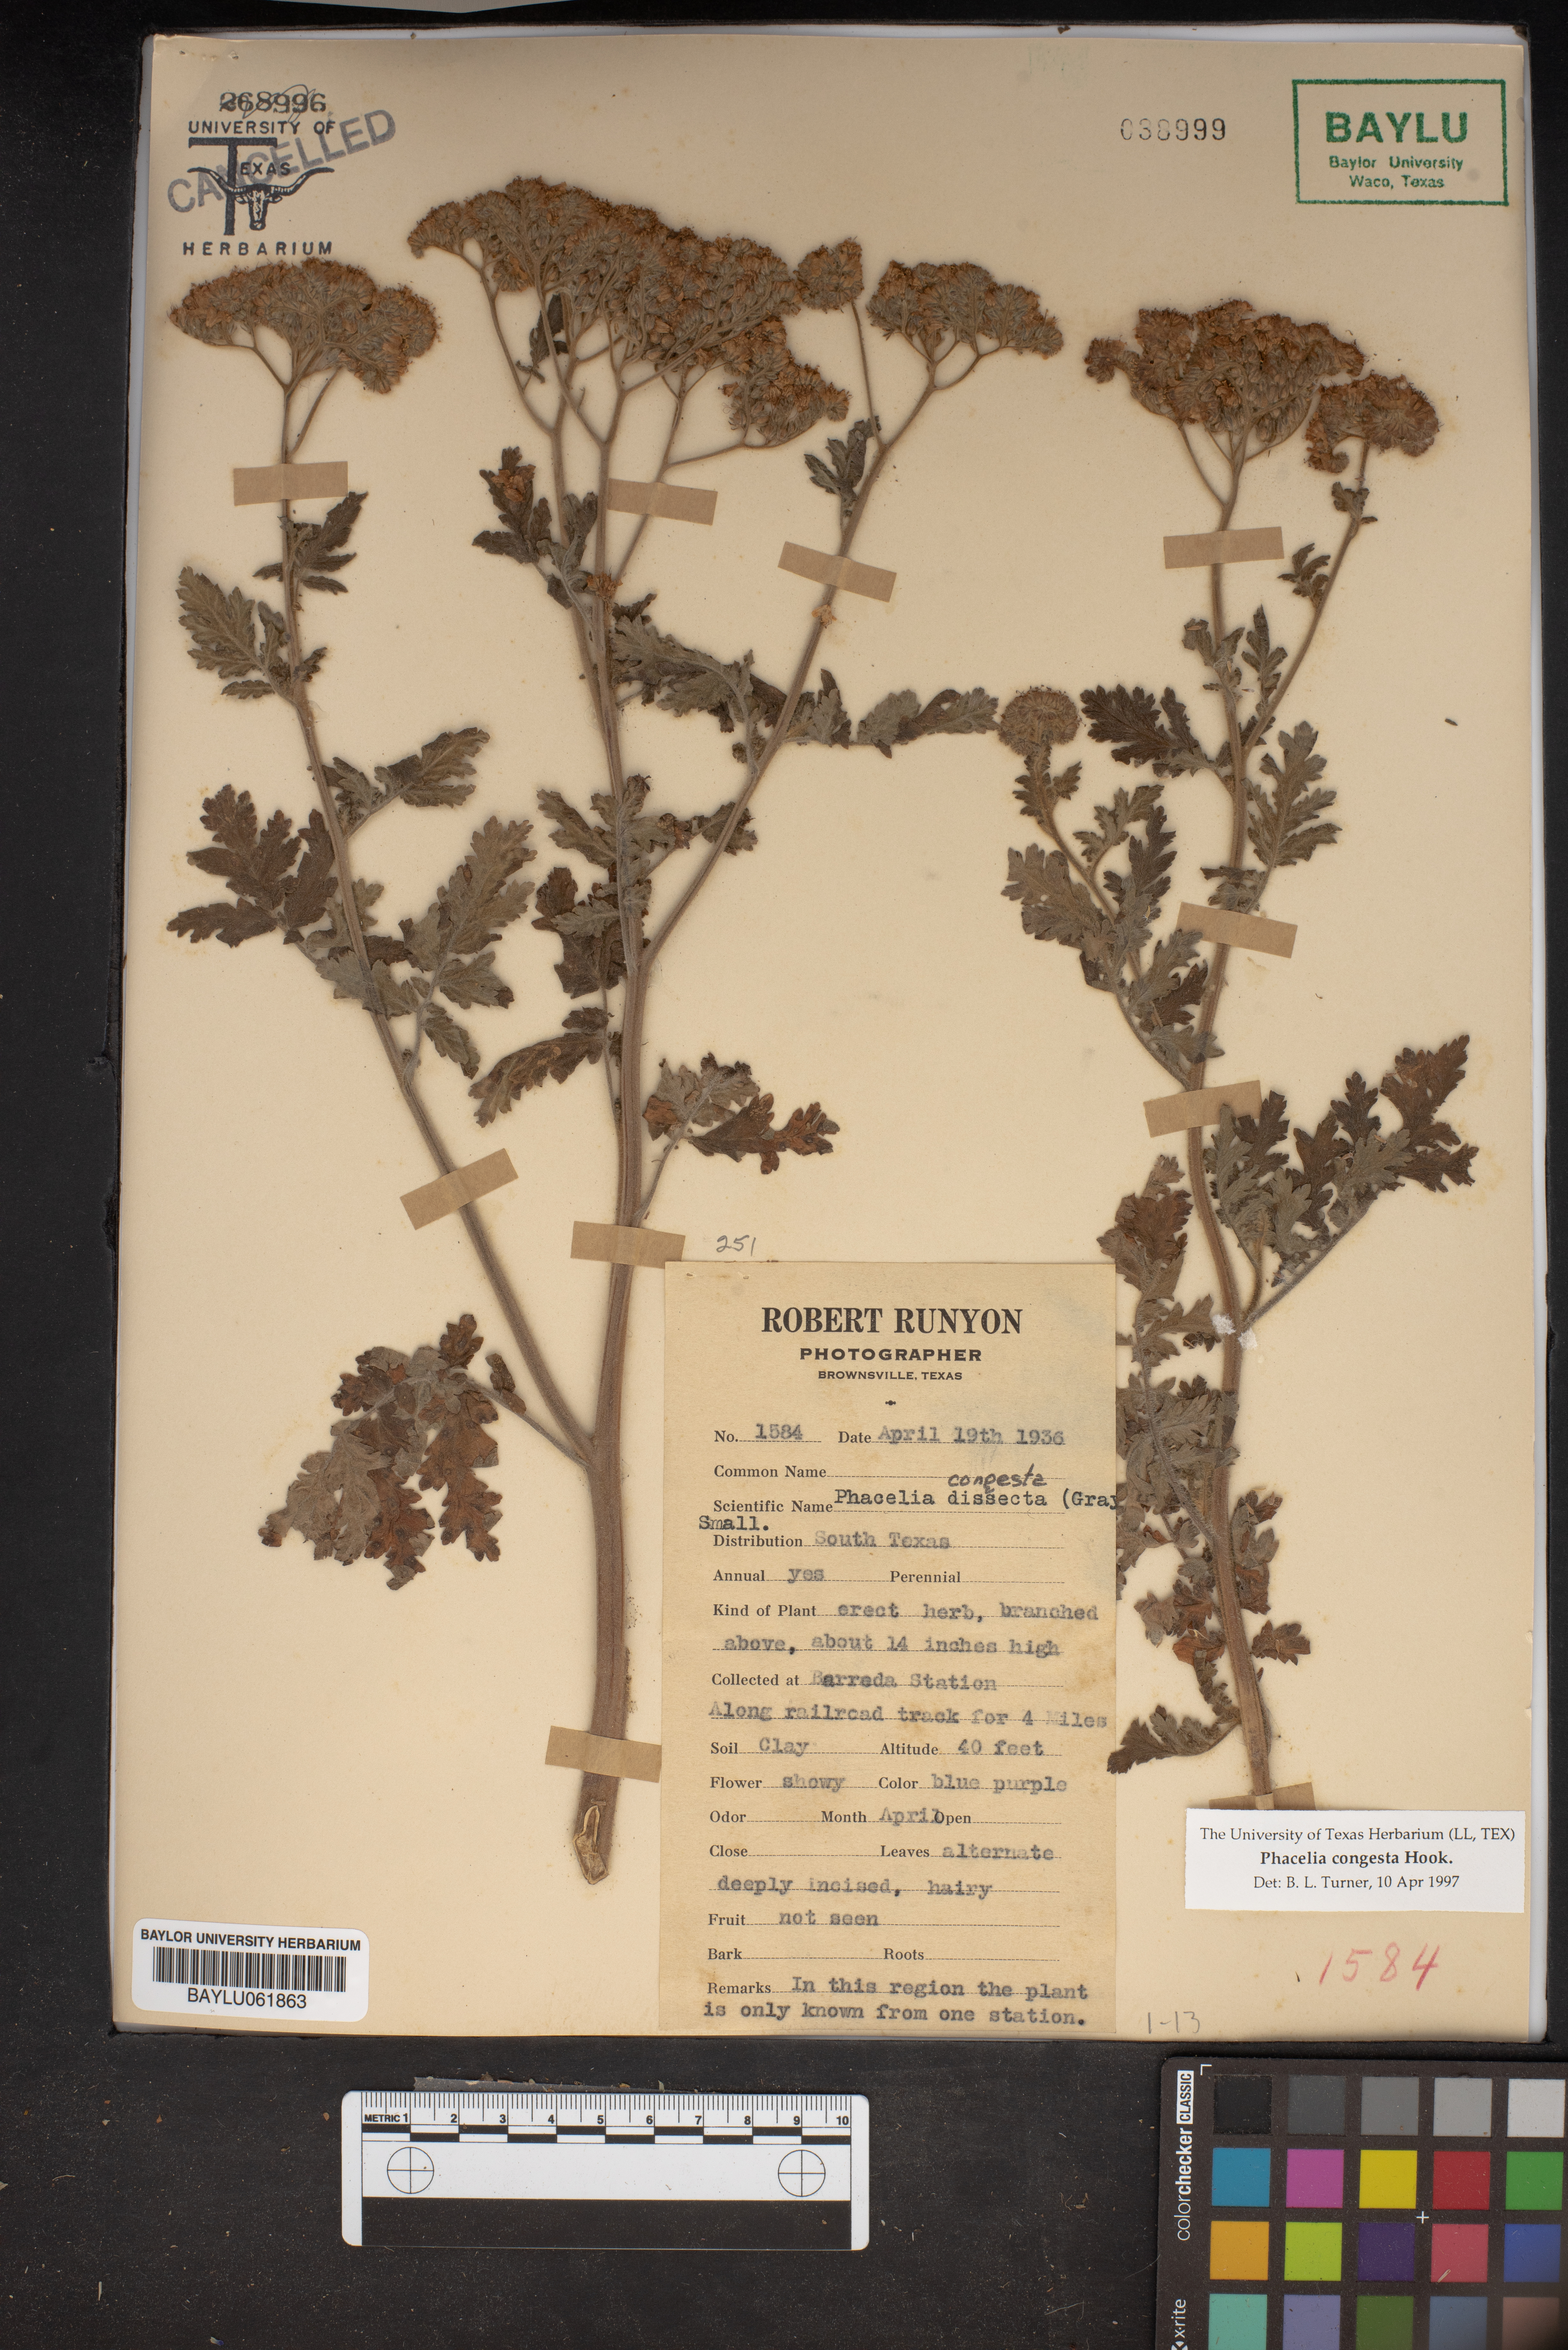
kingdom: Plantae
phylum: Tracheophyta
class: Magnoliopsida
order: Boraginales
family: Hydrophyllaceae
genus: Phacelia
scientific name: Phacelia congesta
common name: Blue curls
